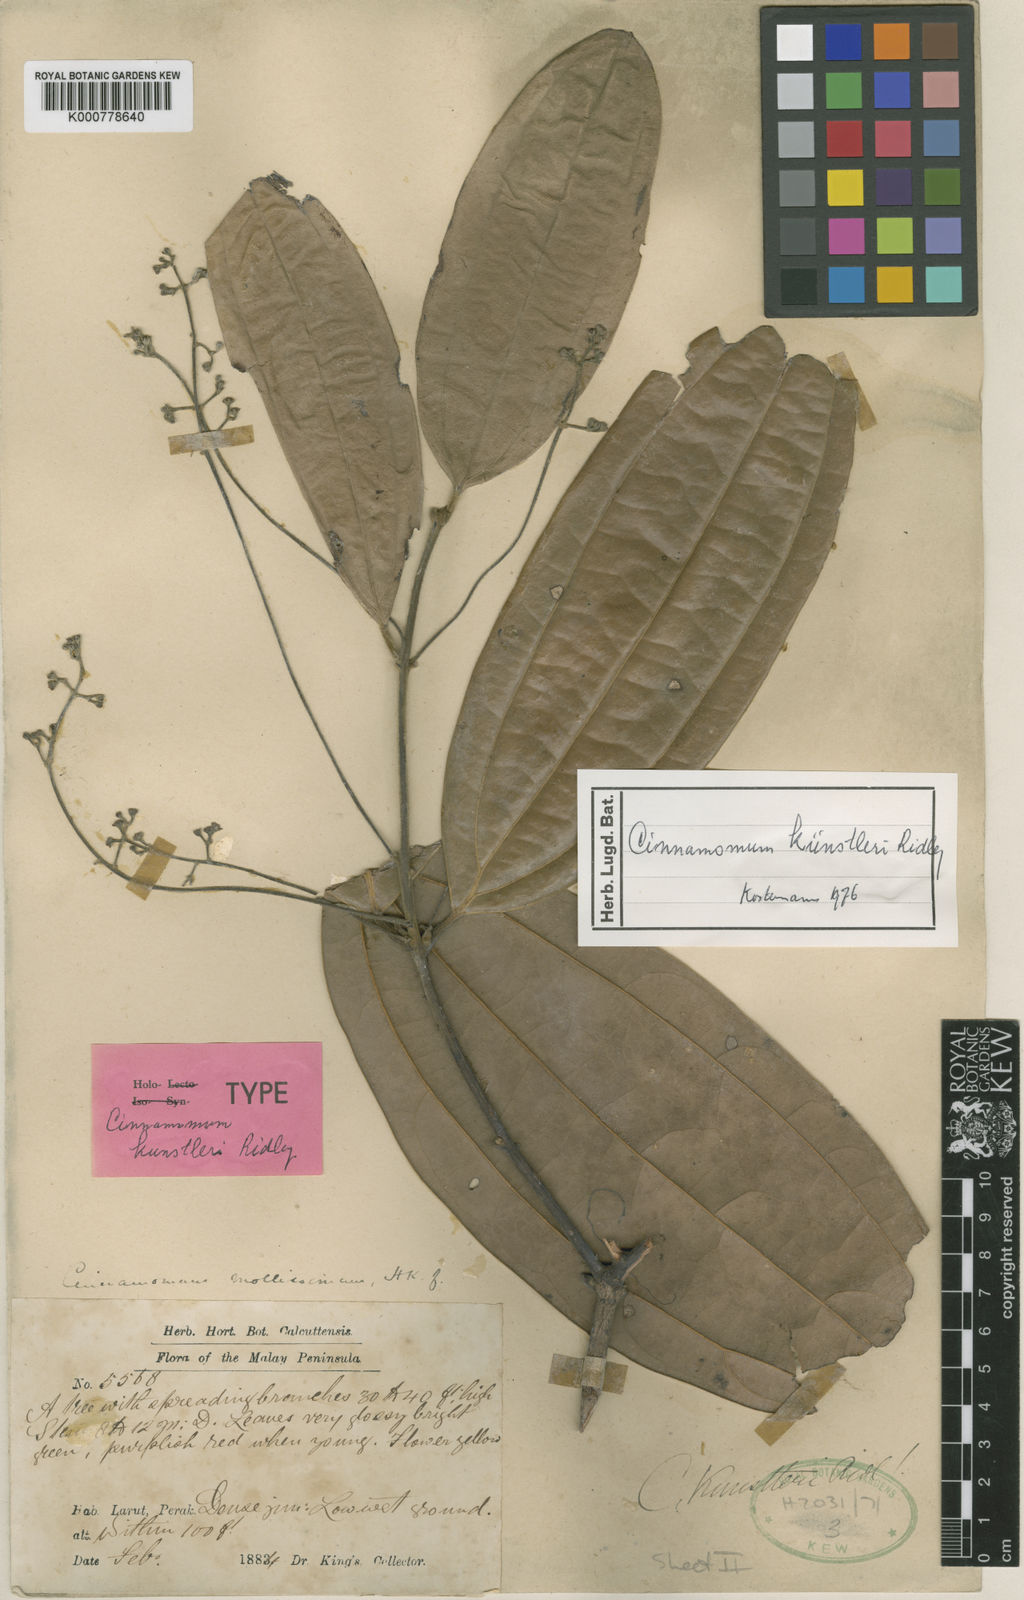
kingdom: Plantae
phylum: Tracheophyta
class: Magnoliopsida
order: Laurales
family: Lauraceae
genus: Cinnamomum
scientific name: Cinnamomum kunstleri
